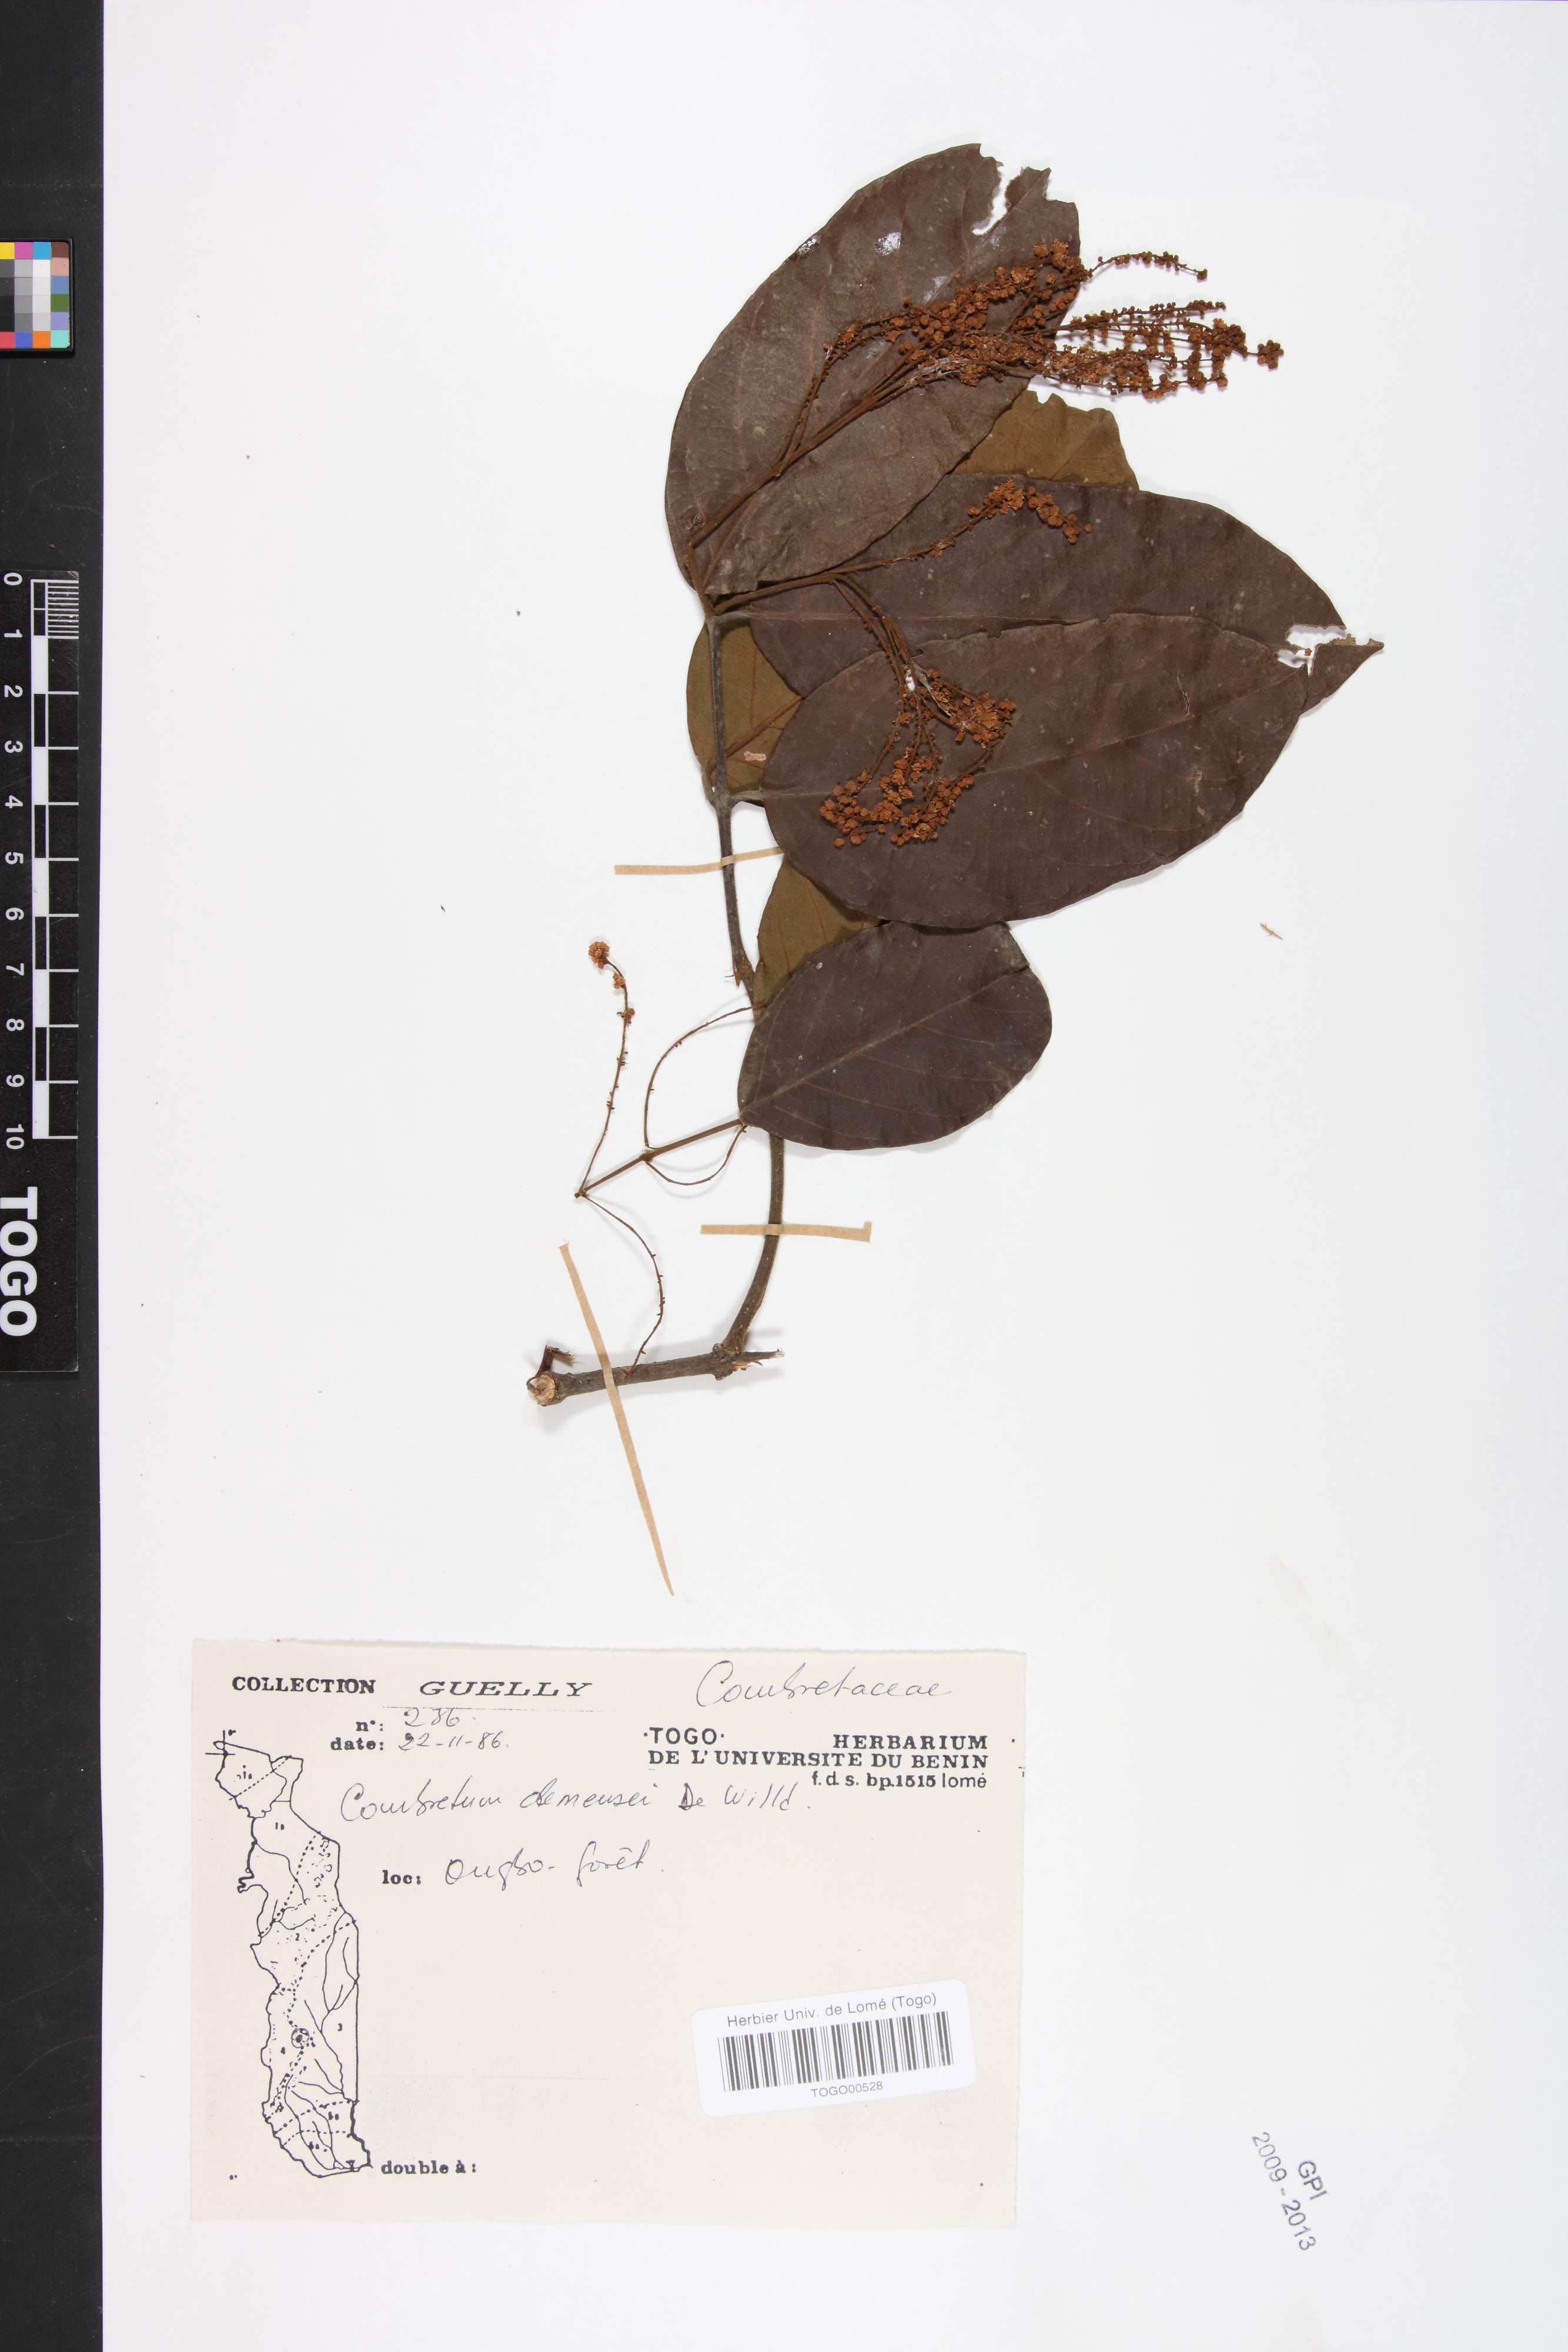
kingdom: Plantae
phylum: Tracheophyta
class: Magnoliopsida
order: Myrtales
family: Combretaceae
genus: Combretum
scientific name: Combretum demeusei
